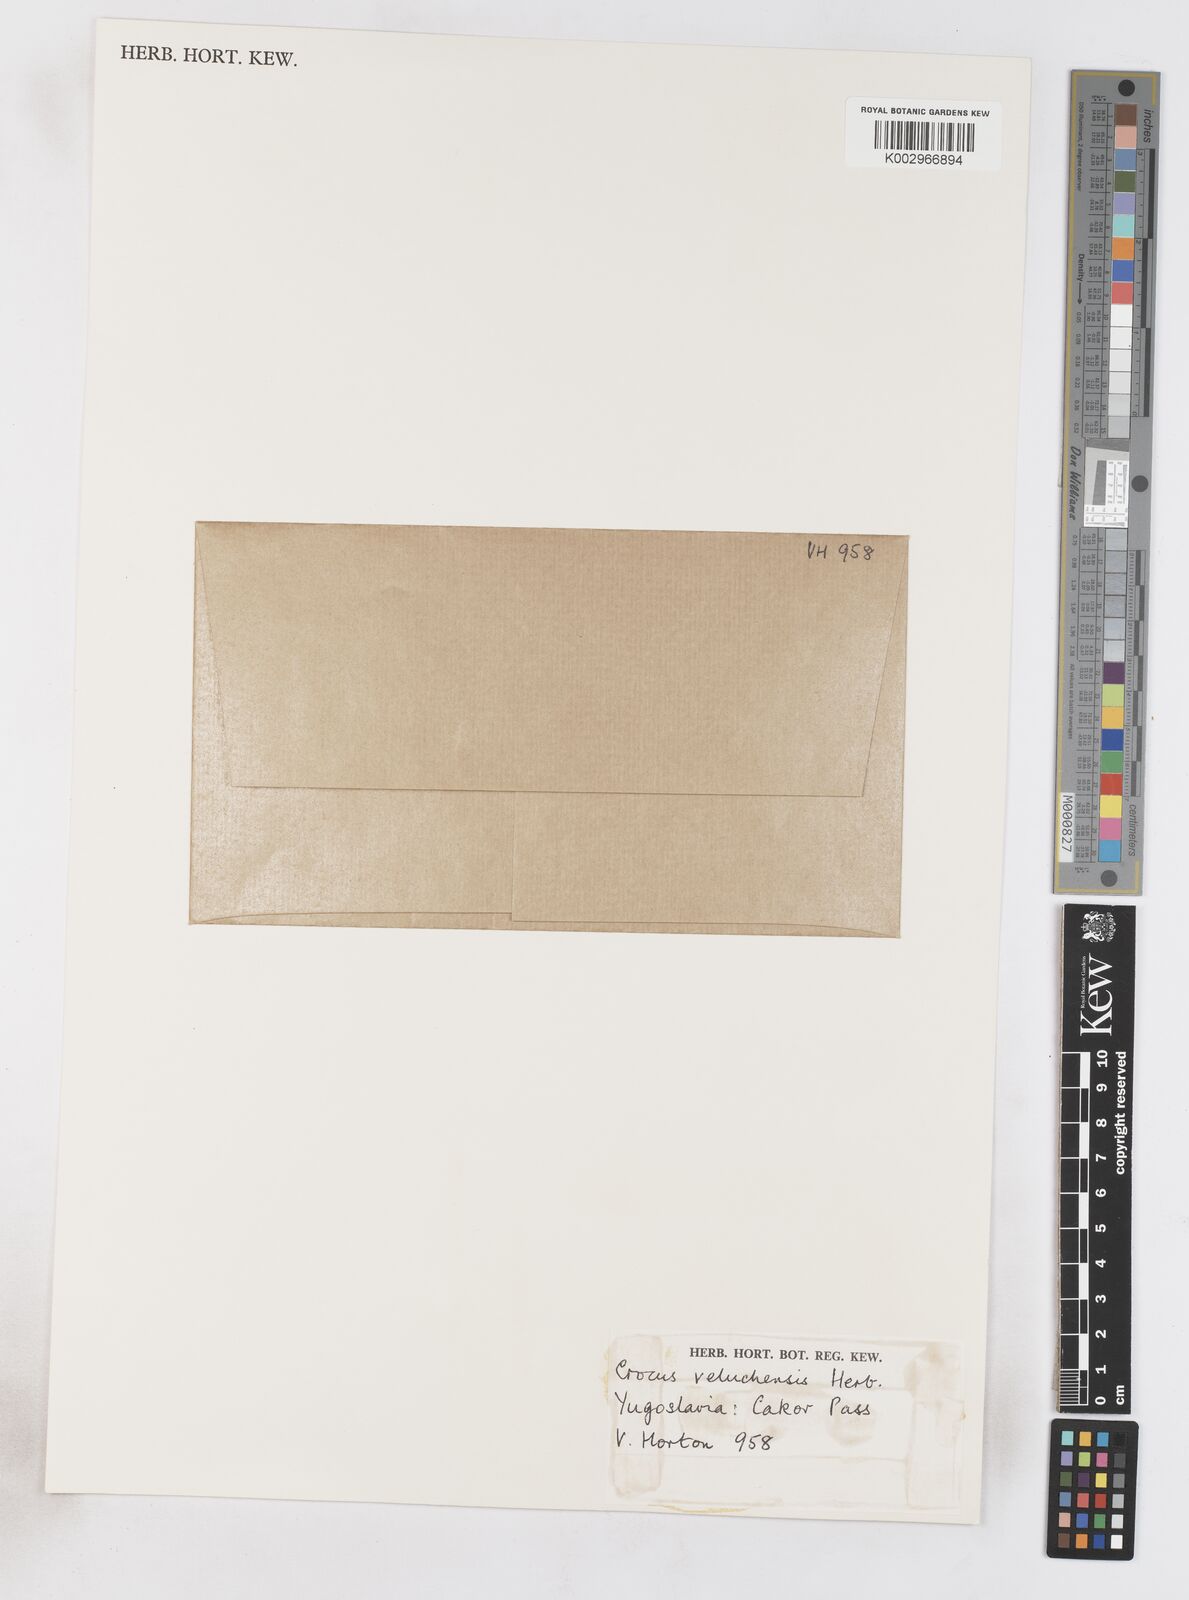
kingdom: Plantae
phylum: Tracheophyta
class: Liliopsida
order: Asparagales
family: Iridaceae
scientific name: Iridaceae
